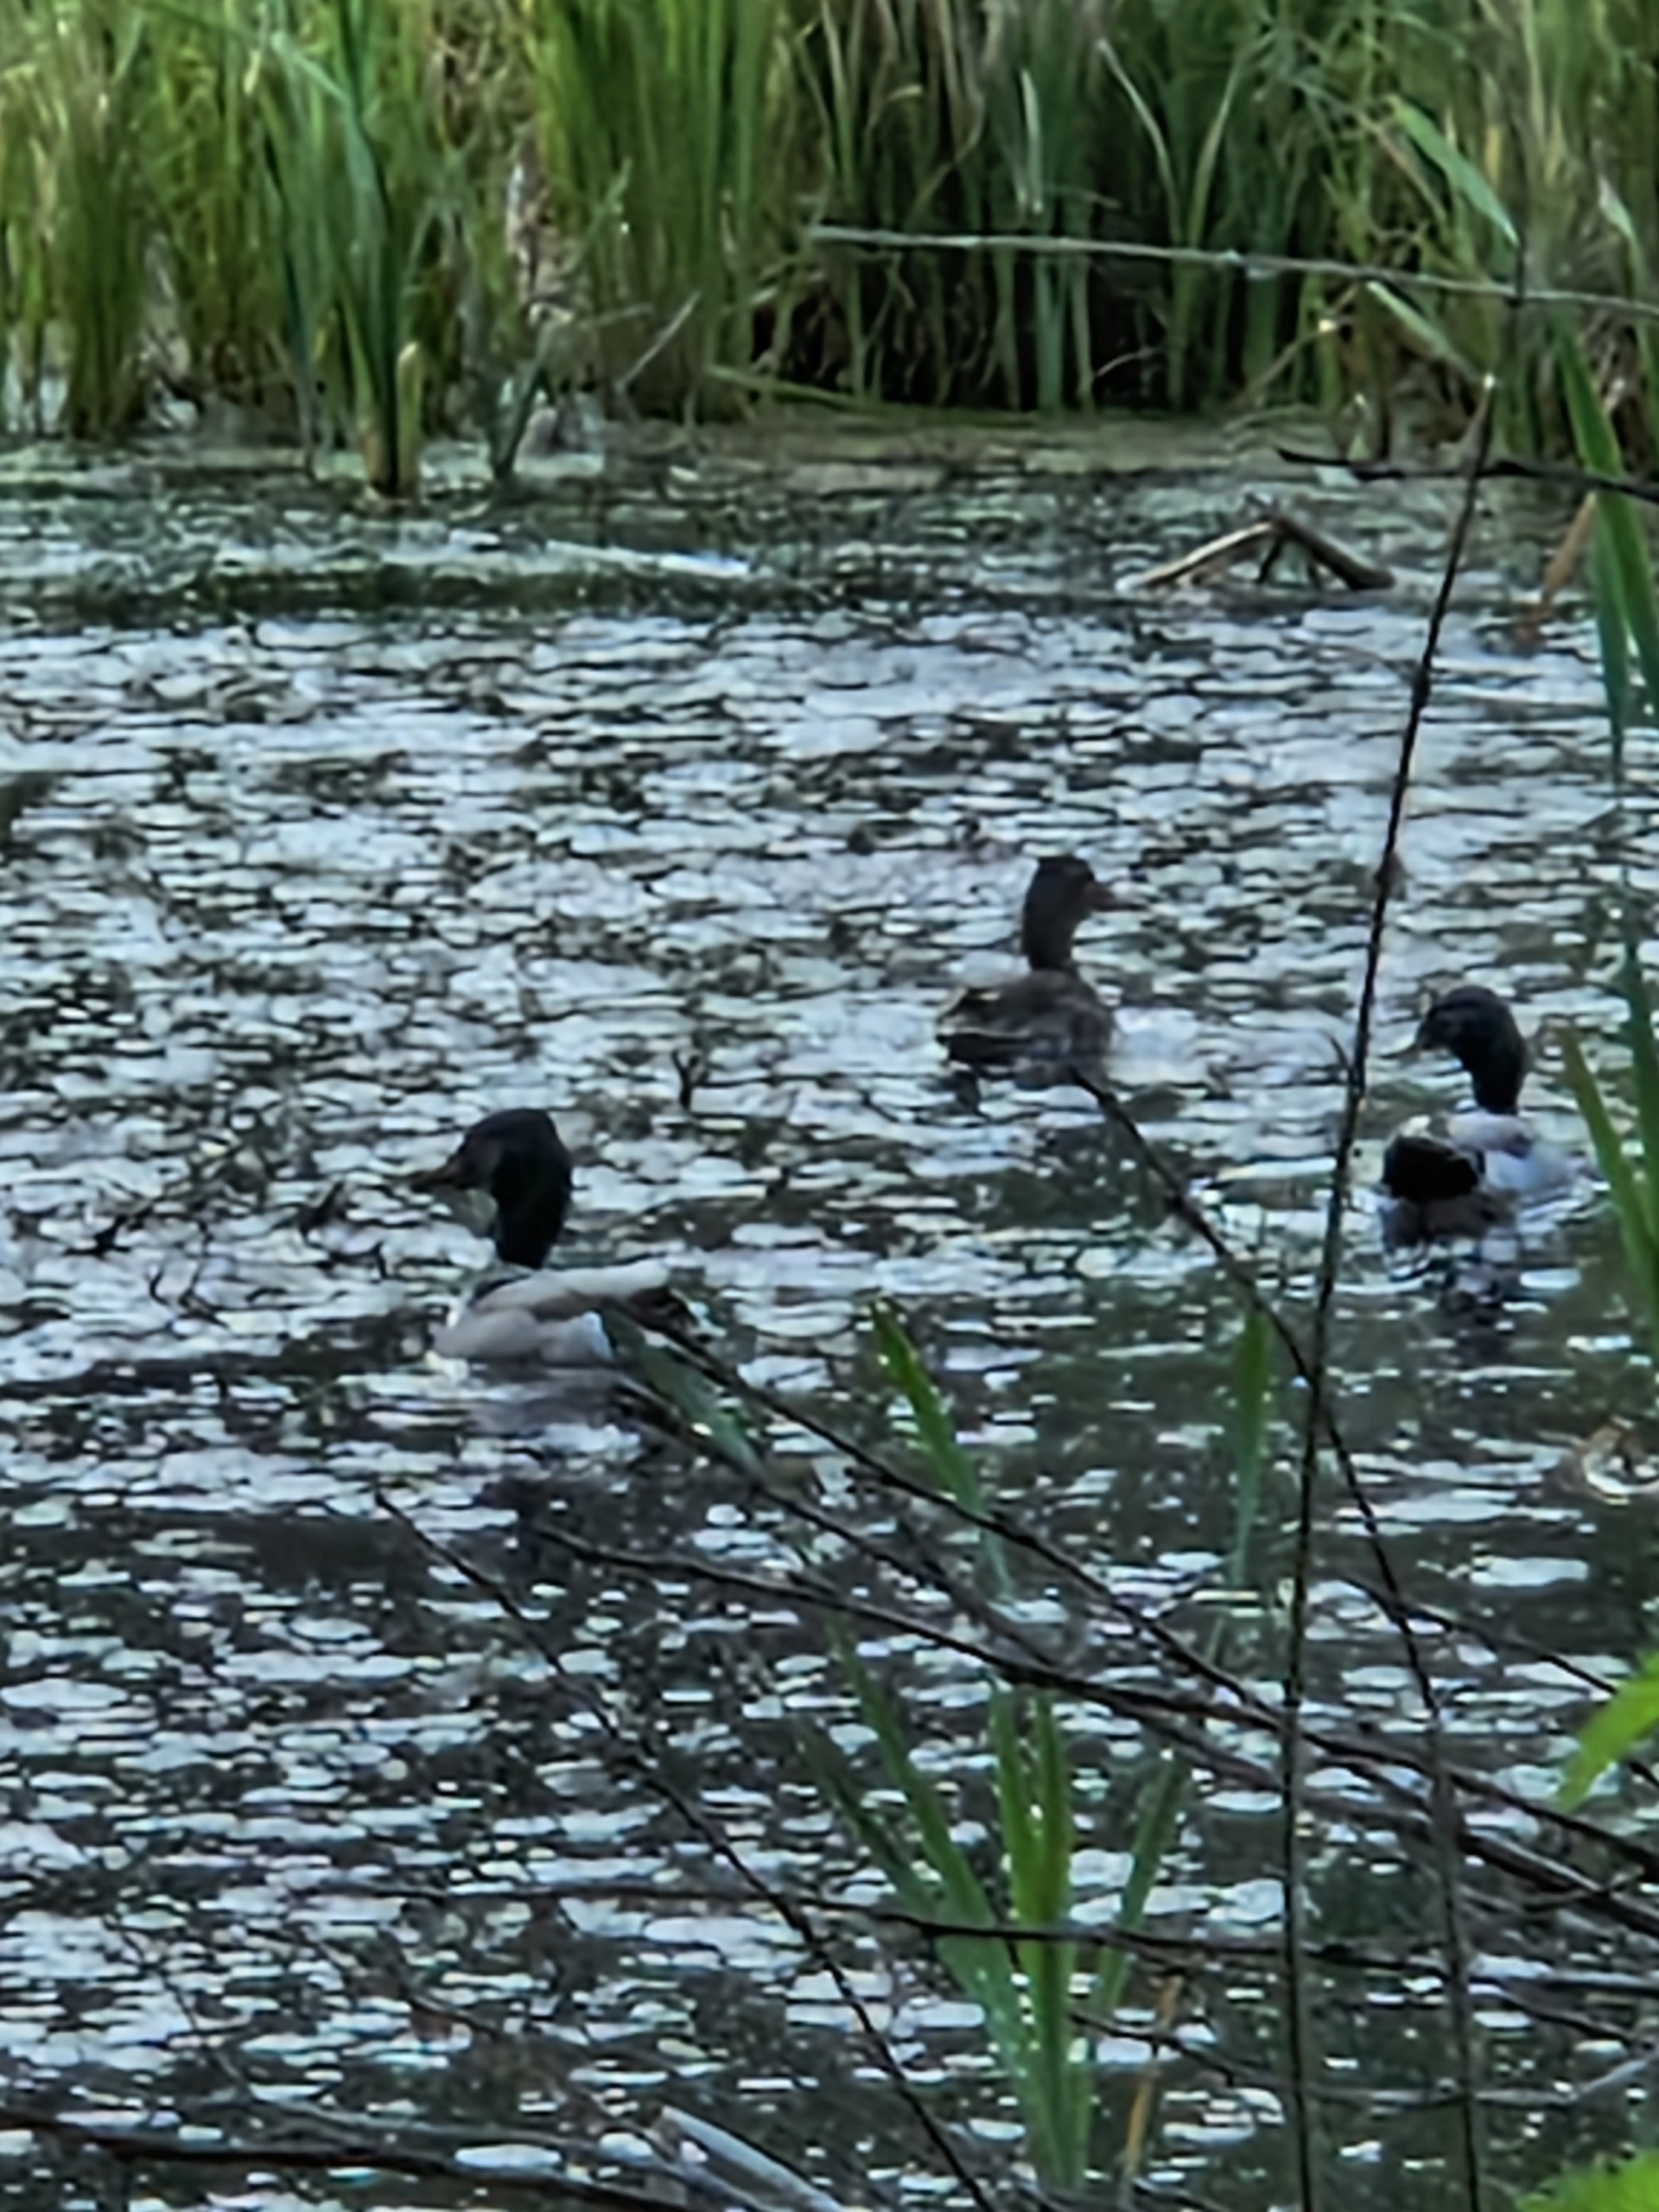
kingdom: Animalia
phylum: Chordata
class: Aves
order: Anseriformes
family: Anatidae
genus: Anas
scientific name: Anas platyrhynchos
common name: Gråand
